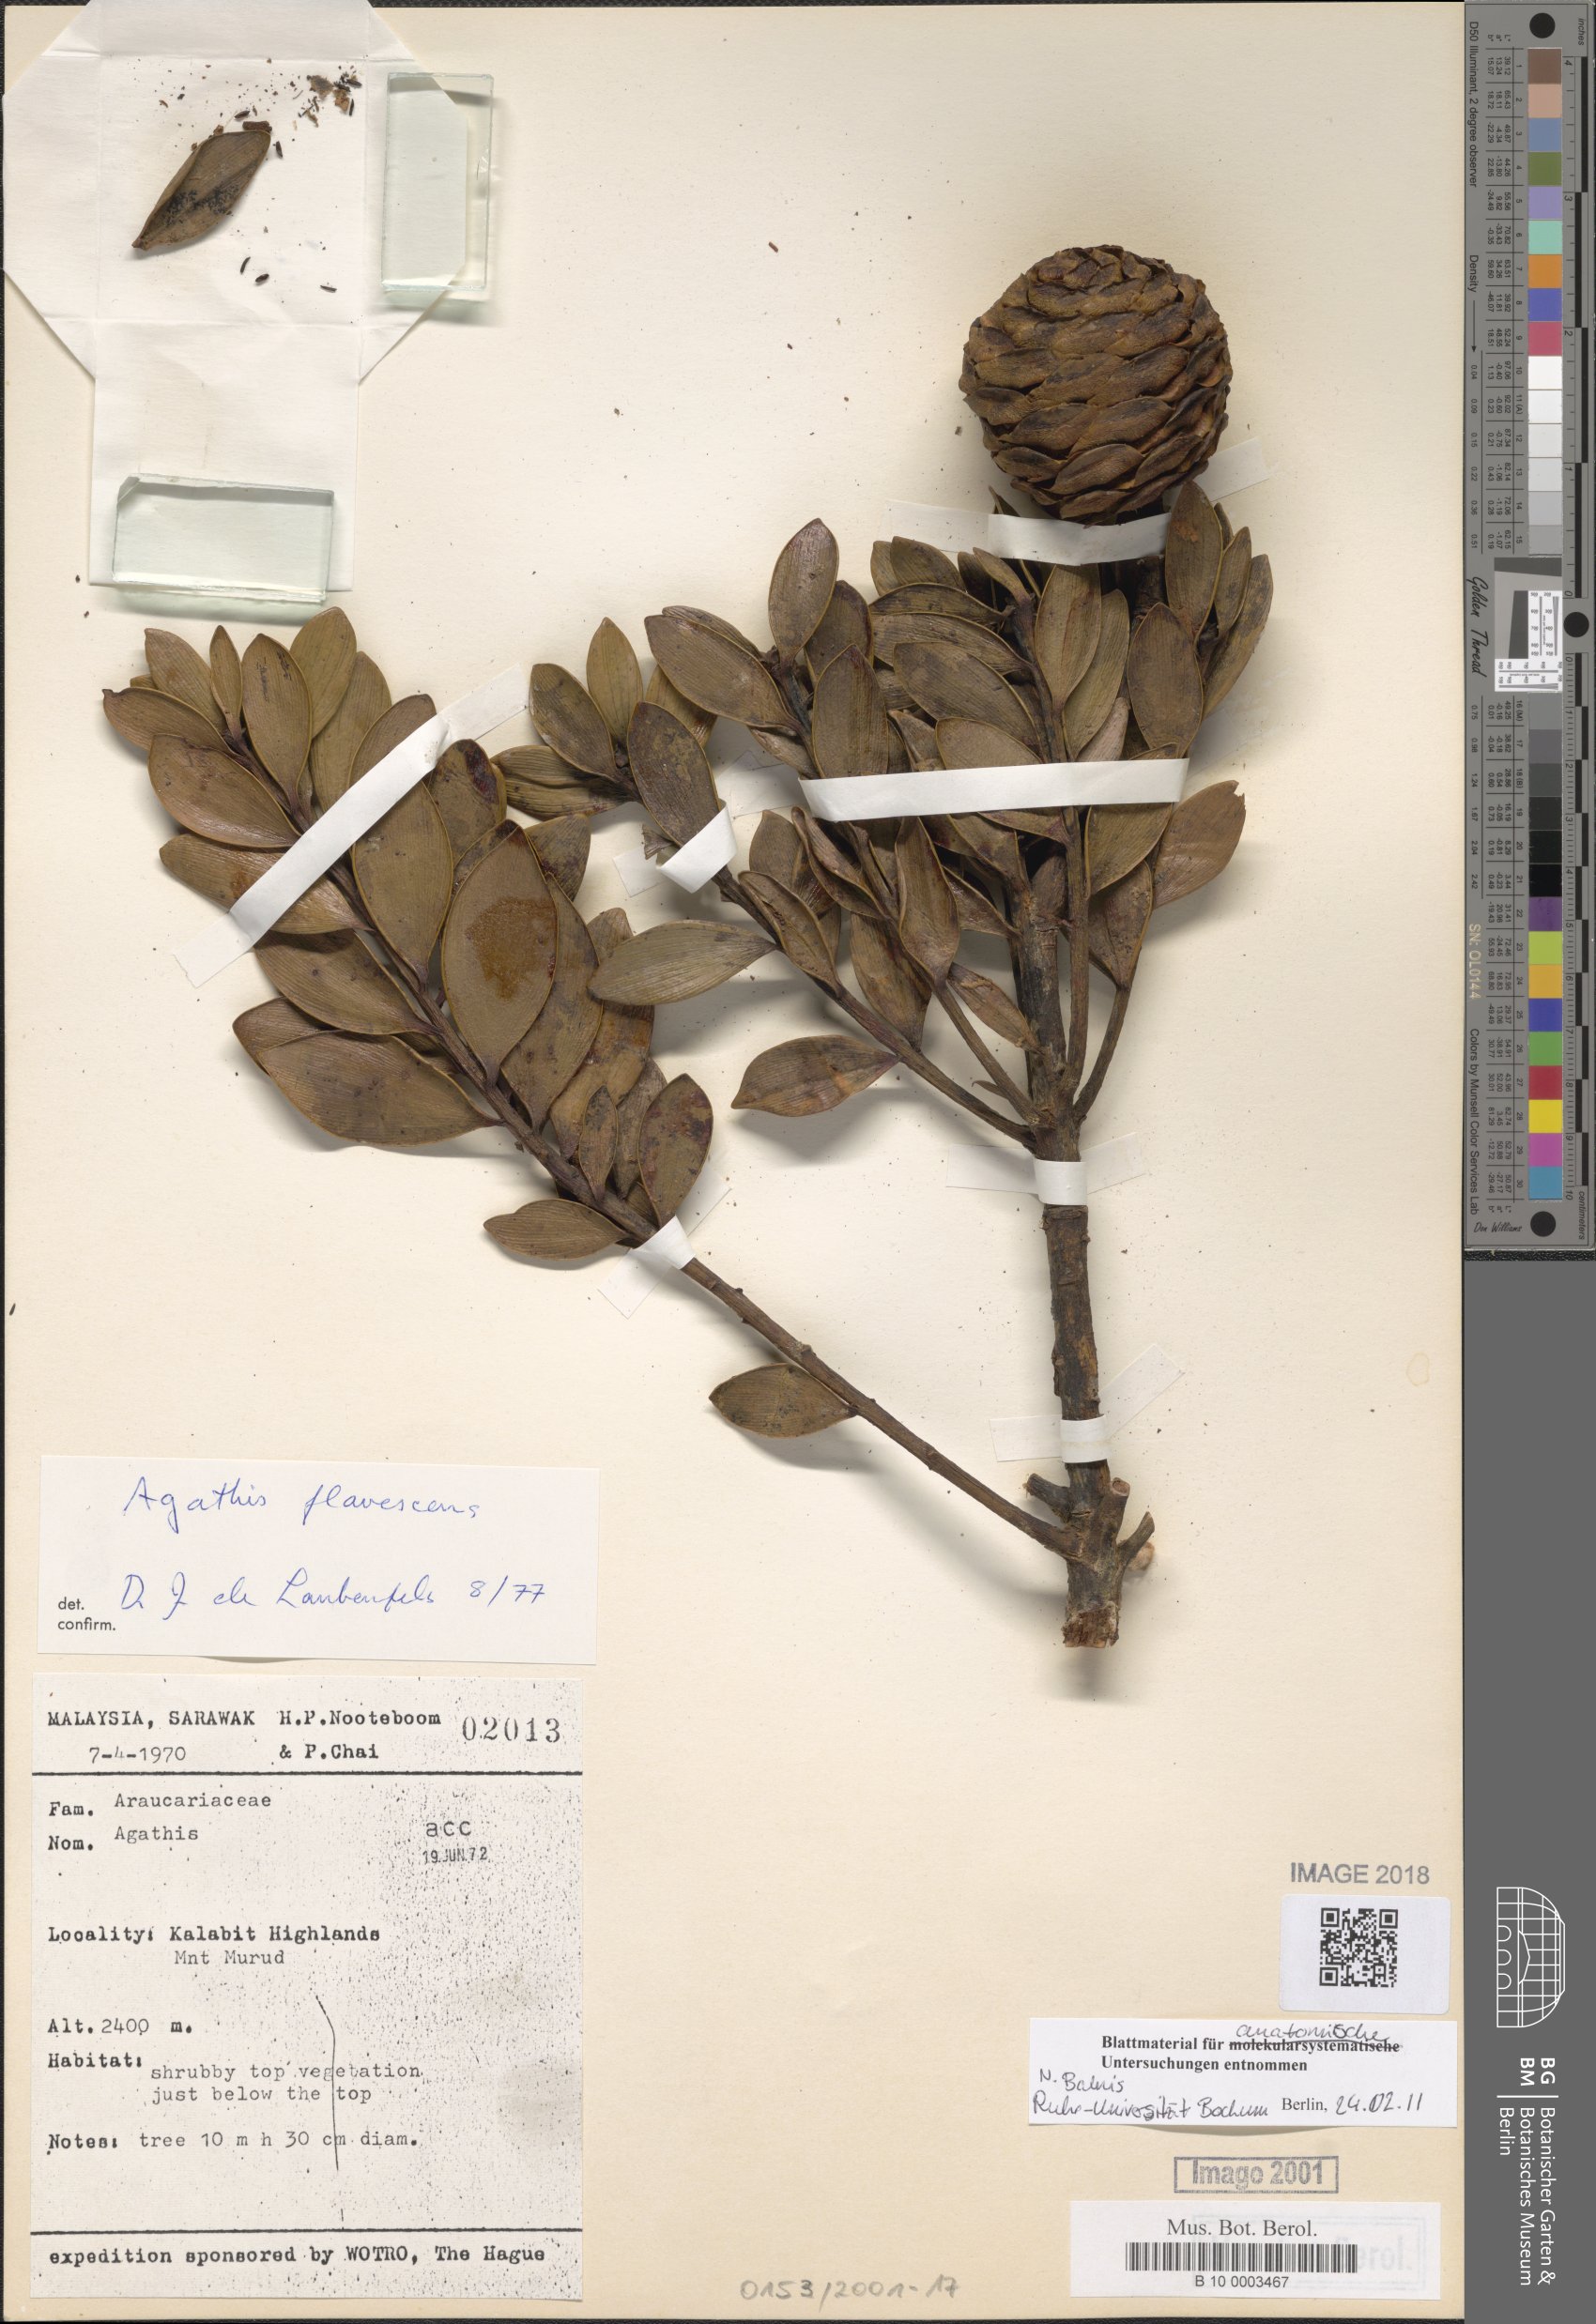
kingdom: Plantae
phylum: Tracheophyta
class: Pinopsida
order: Pinales
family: Araucariaceae
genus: Agathis
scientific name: Agathis flavescens
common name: Tahan agathis
